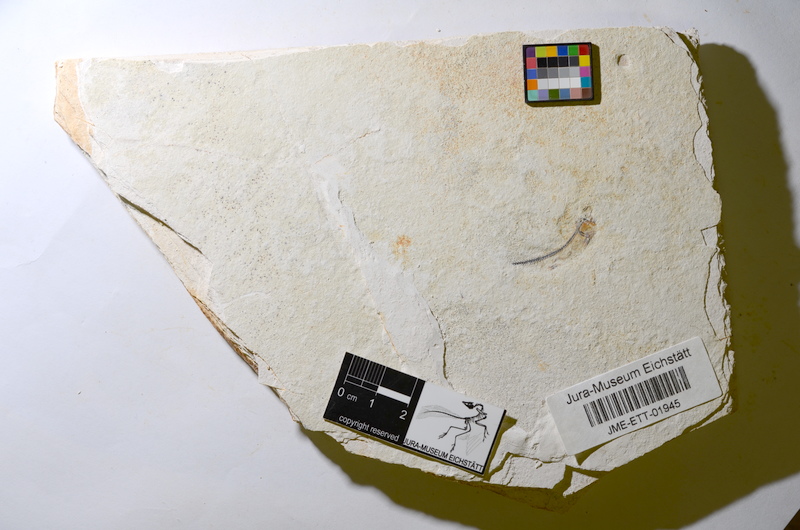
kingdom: Animalia
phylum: Chordata
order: Salmoniformes
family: Orthogonikleithridae
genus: Orthogonikleithrus
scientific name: Orthogonikleithrus hoelli
